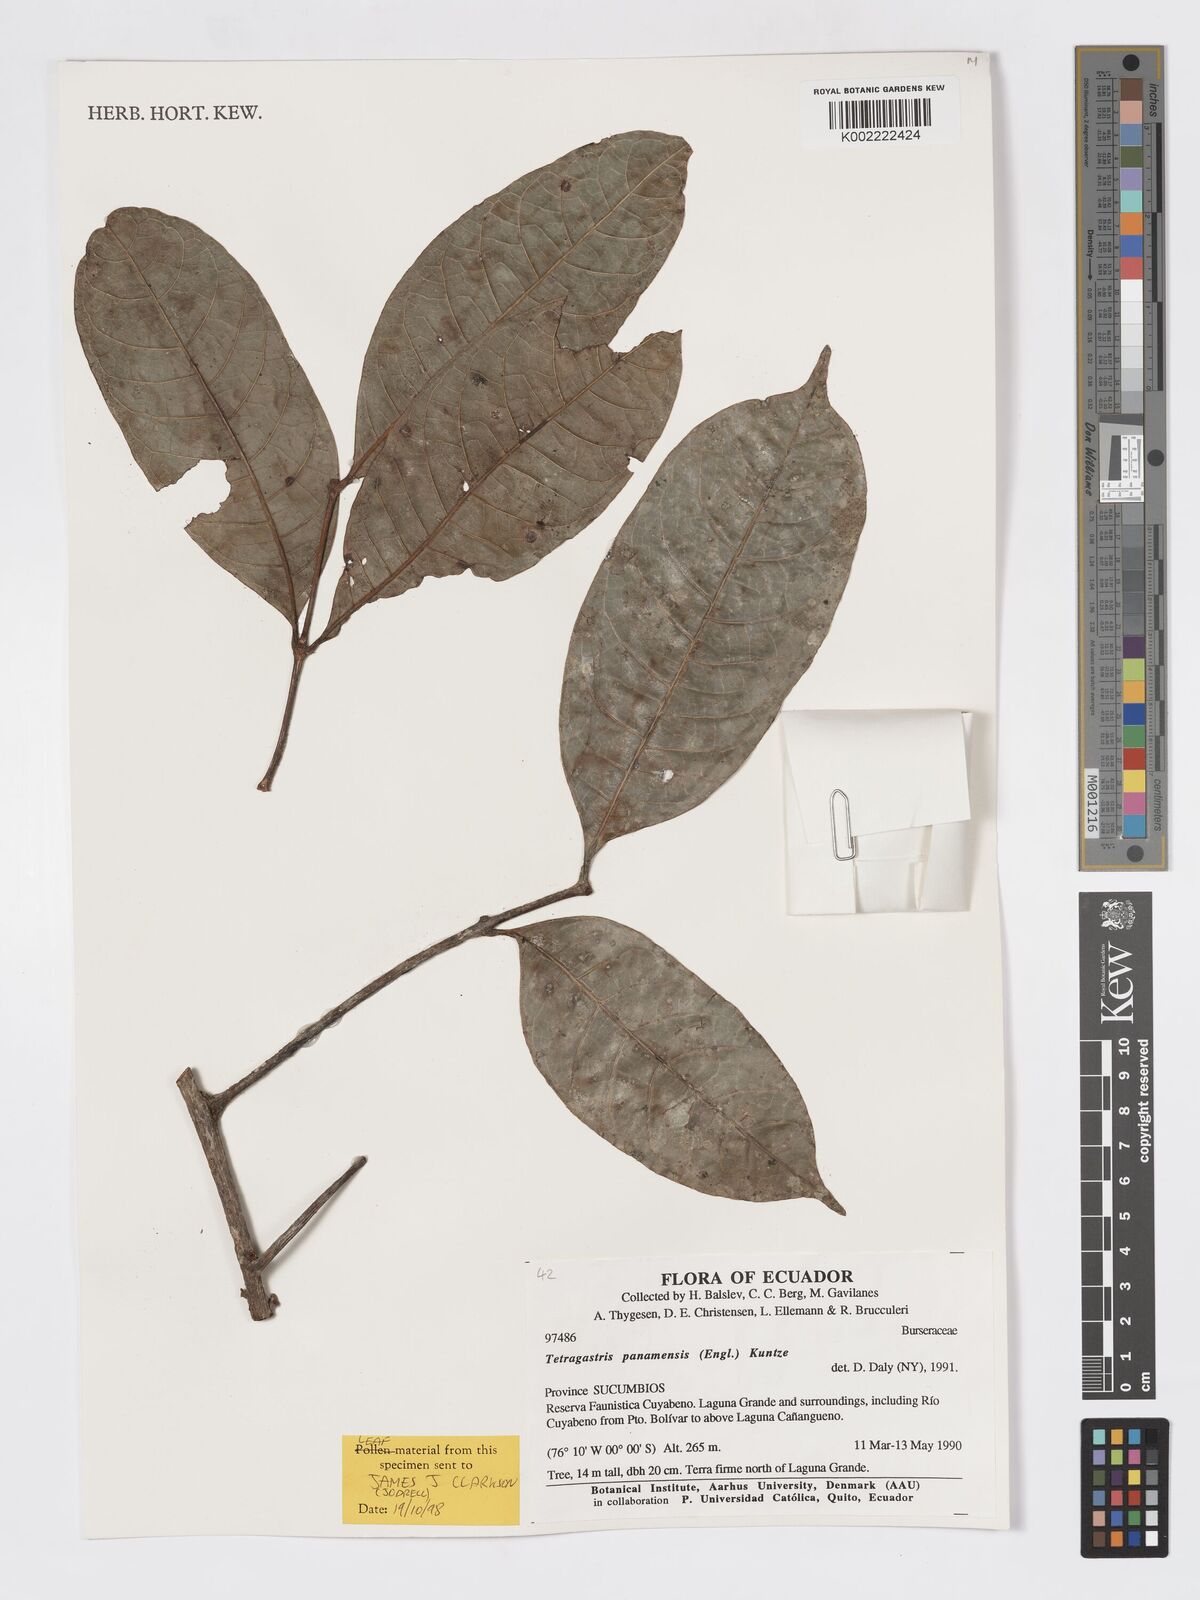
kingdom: Plantae
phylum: Tracheophyta
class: Magnoliopsida
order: Sapindales
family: Burseraceae
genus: Tetragastris
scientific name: Tetragastris panamensis
